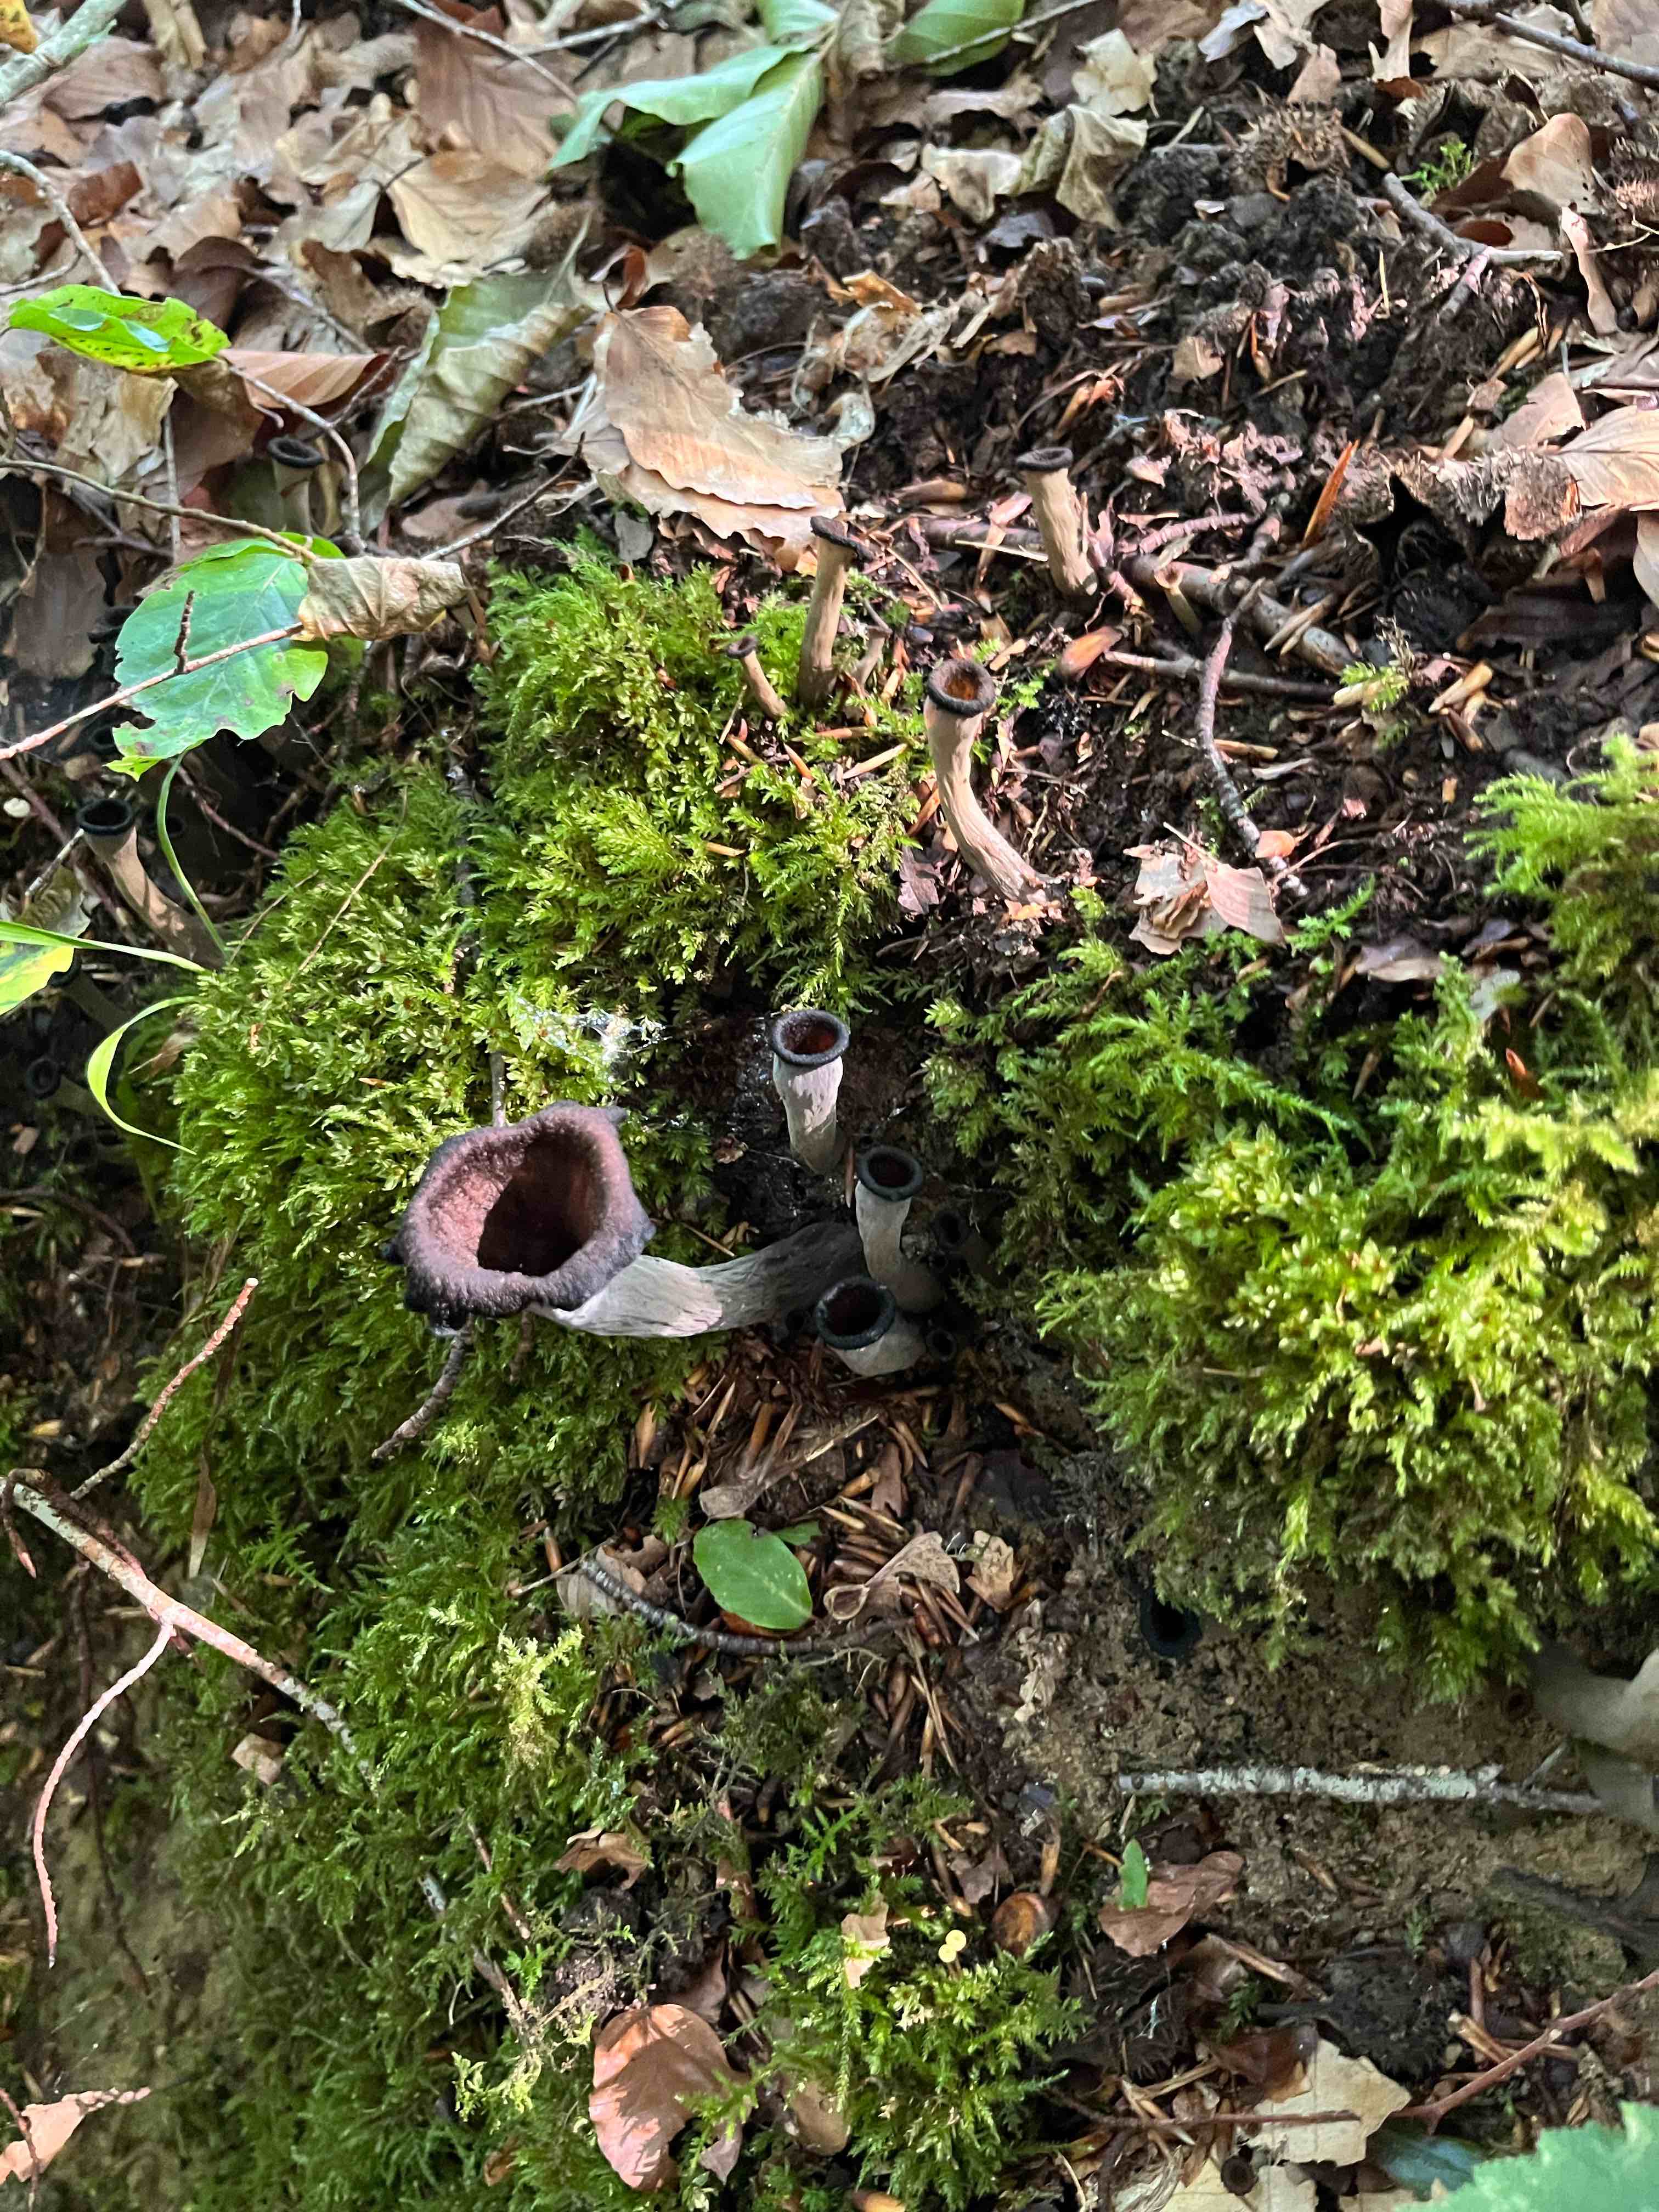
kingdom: Fungi
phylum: Basidiomycota
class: Agaricomycetes
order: Cantharellales
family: Hydnaceae
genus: Craterellus
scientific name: Craterellus cornucopioides
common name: trompetsvamp
